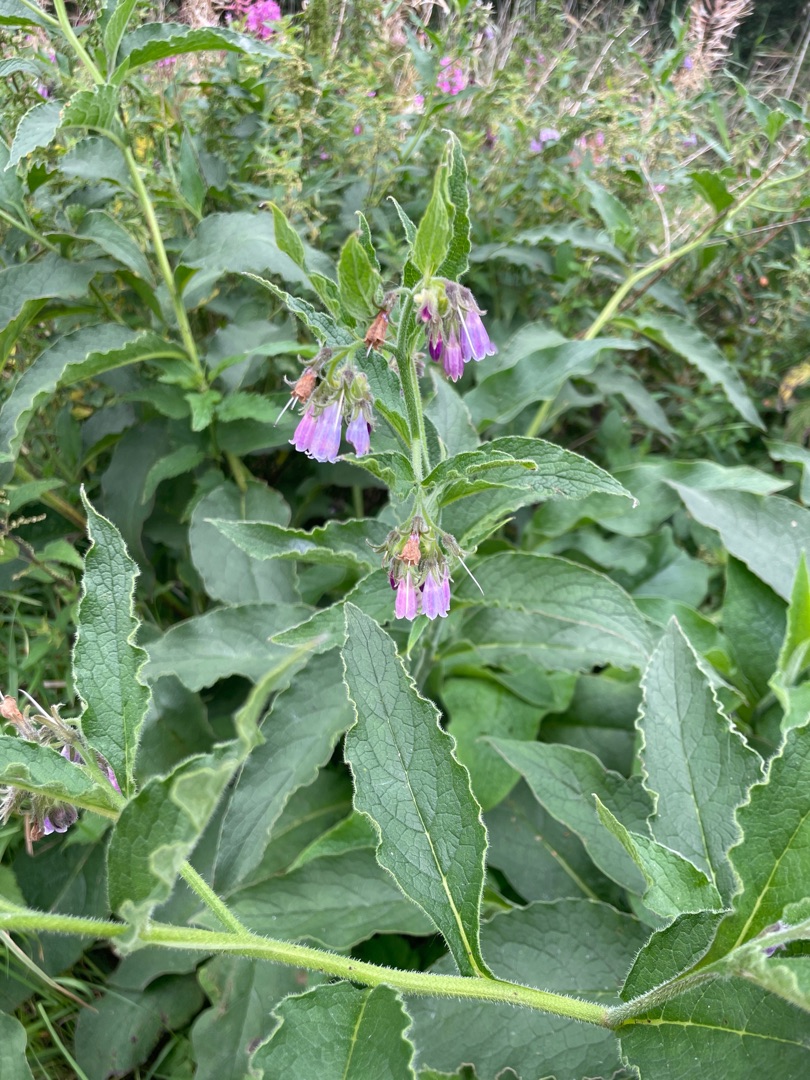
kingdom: Plantae
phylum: Tracheophyta
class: Magnoliopsida
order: Boraginales
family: Boraginaceae
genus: Symphytum
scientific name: Symphytum uplandicum
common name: Foder-kulsukker
